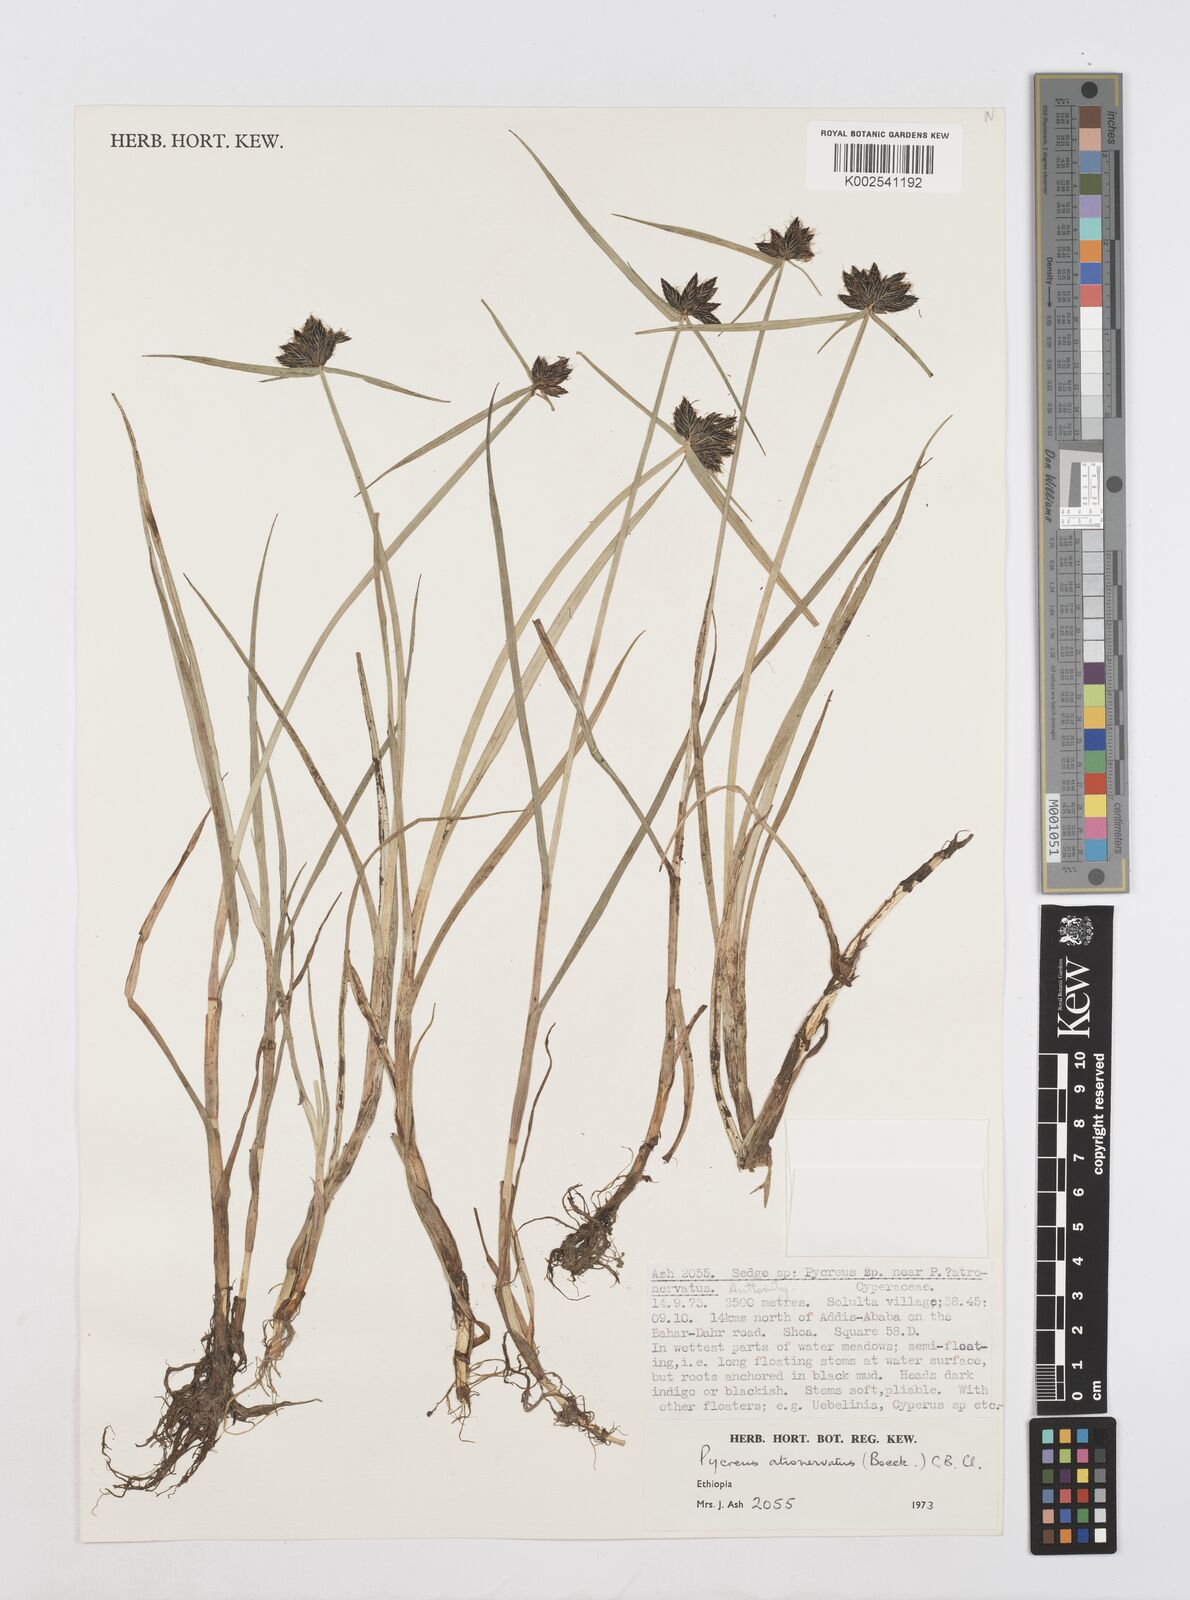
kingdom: Plantae
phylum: Tracheophyta
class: Liliopsida
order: Poales
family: Cyperaceae
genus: Cyperus
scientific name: Cyperus atronervatus
